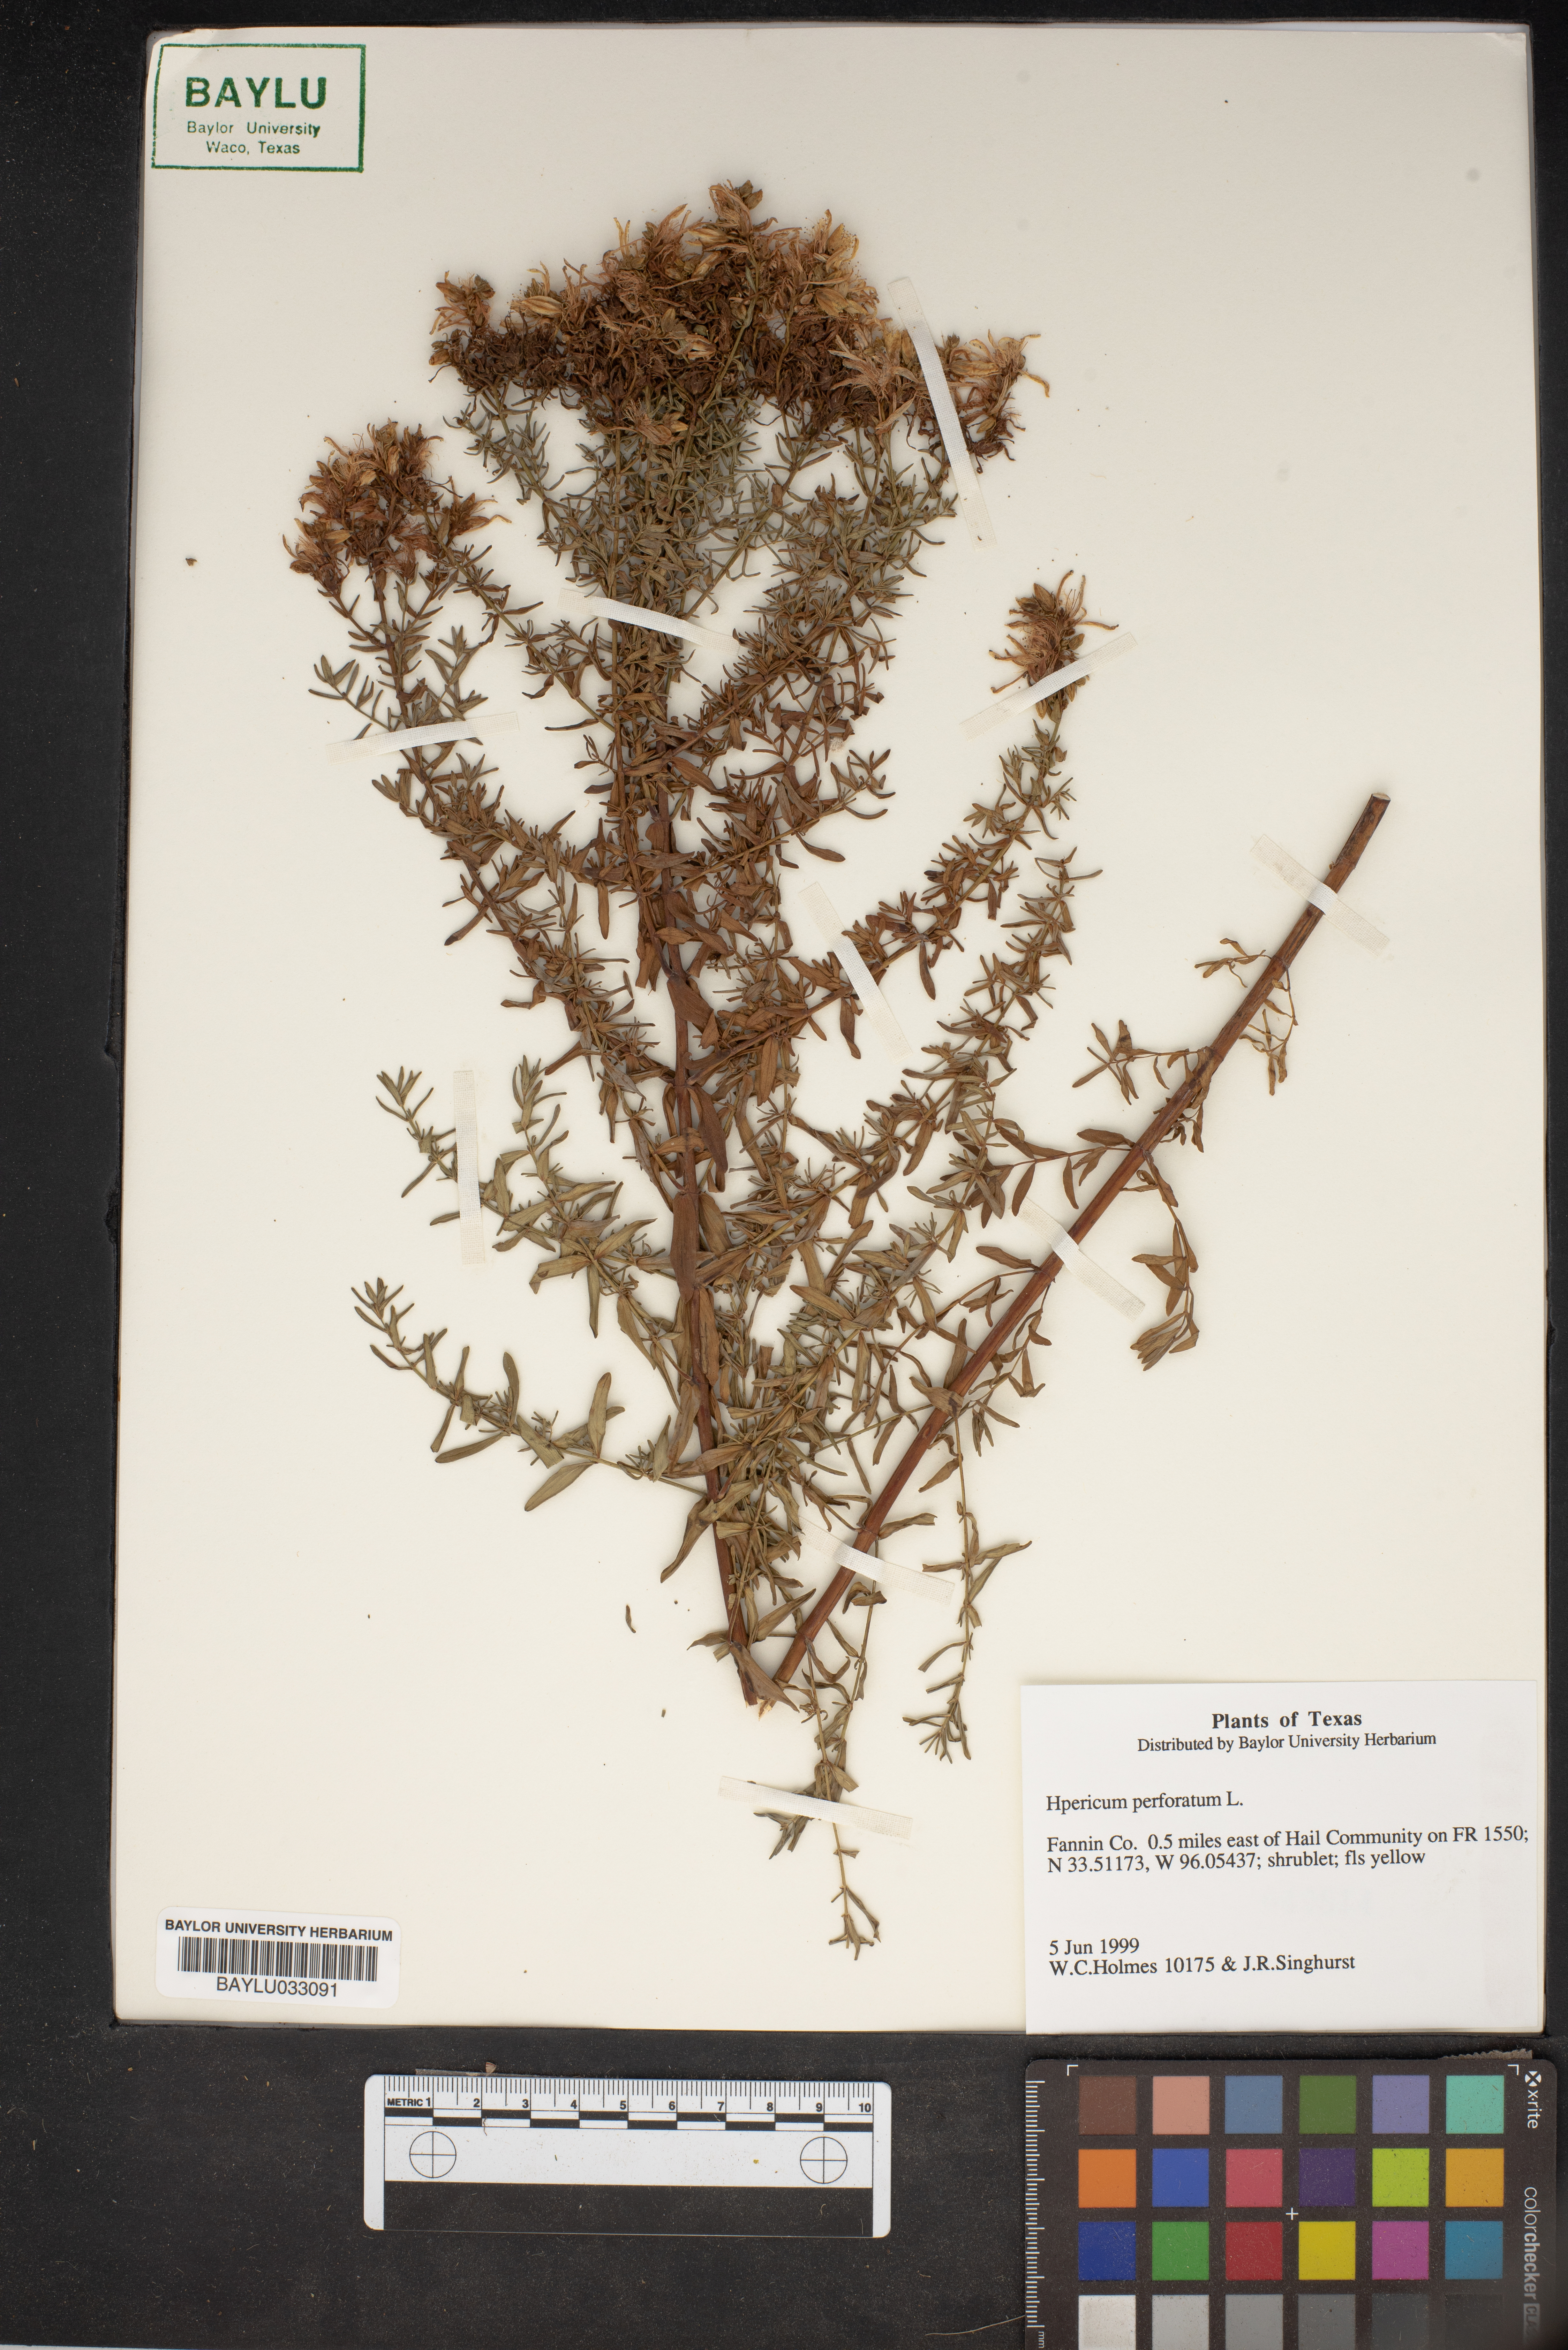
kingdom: Plantae
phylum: Tracheophyta
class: Magnoliopsida
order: Malpighiales
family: Hypericaceae
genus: Hypericum
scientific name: Hypericum perforatum
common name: Common st. johnswort
